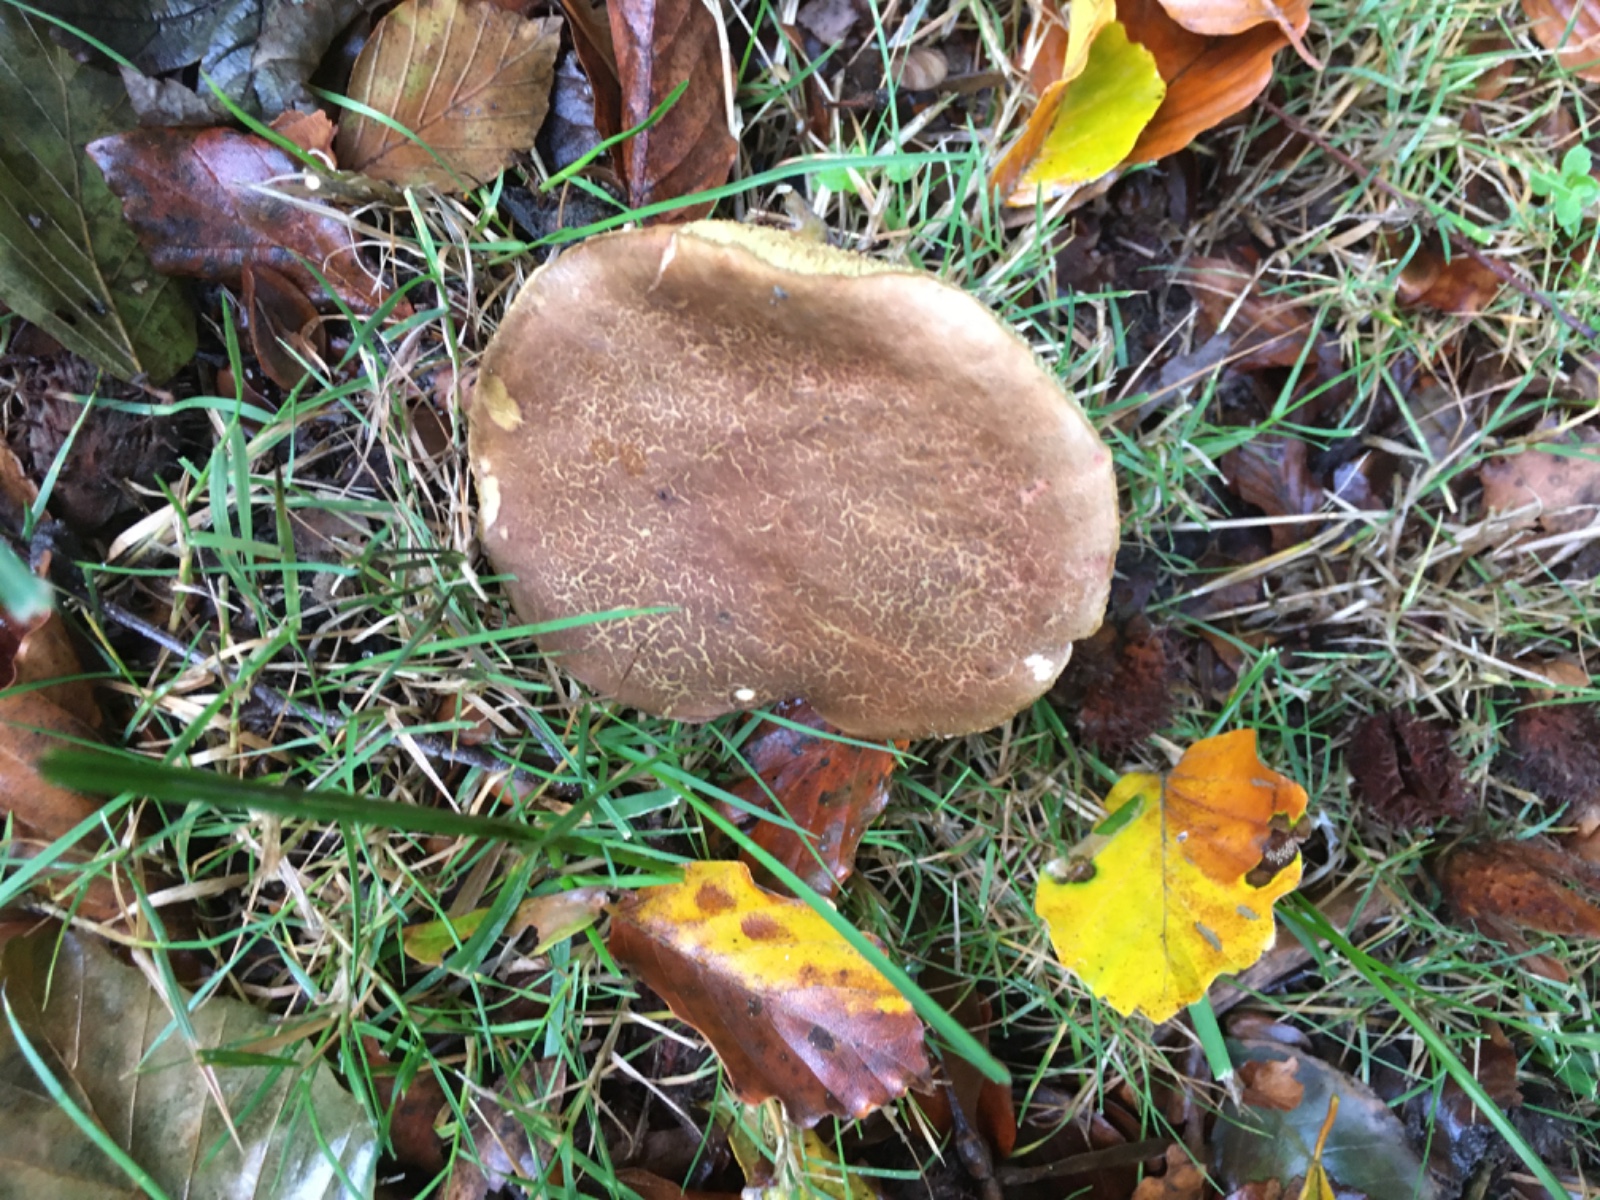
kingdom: Fungi
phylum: Basidiomycota
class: Agaricomycetes
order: Boletales
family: Boletaceae
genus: Xerocomellus
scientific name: Xerocomellus chrysenteron
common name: rødsprukken rørhat
